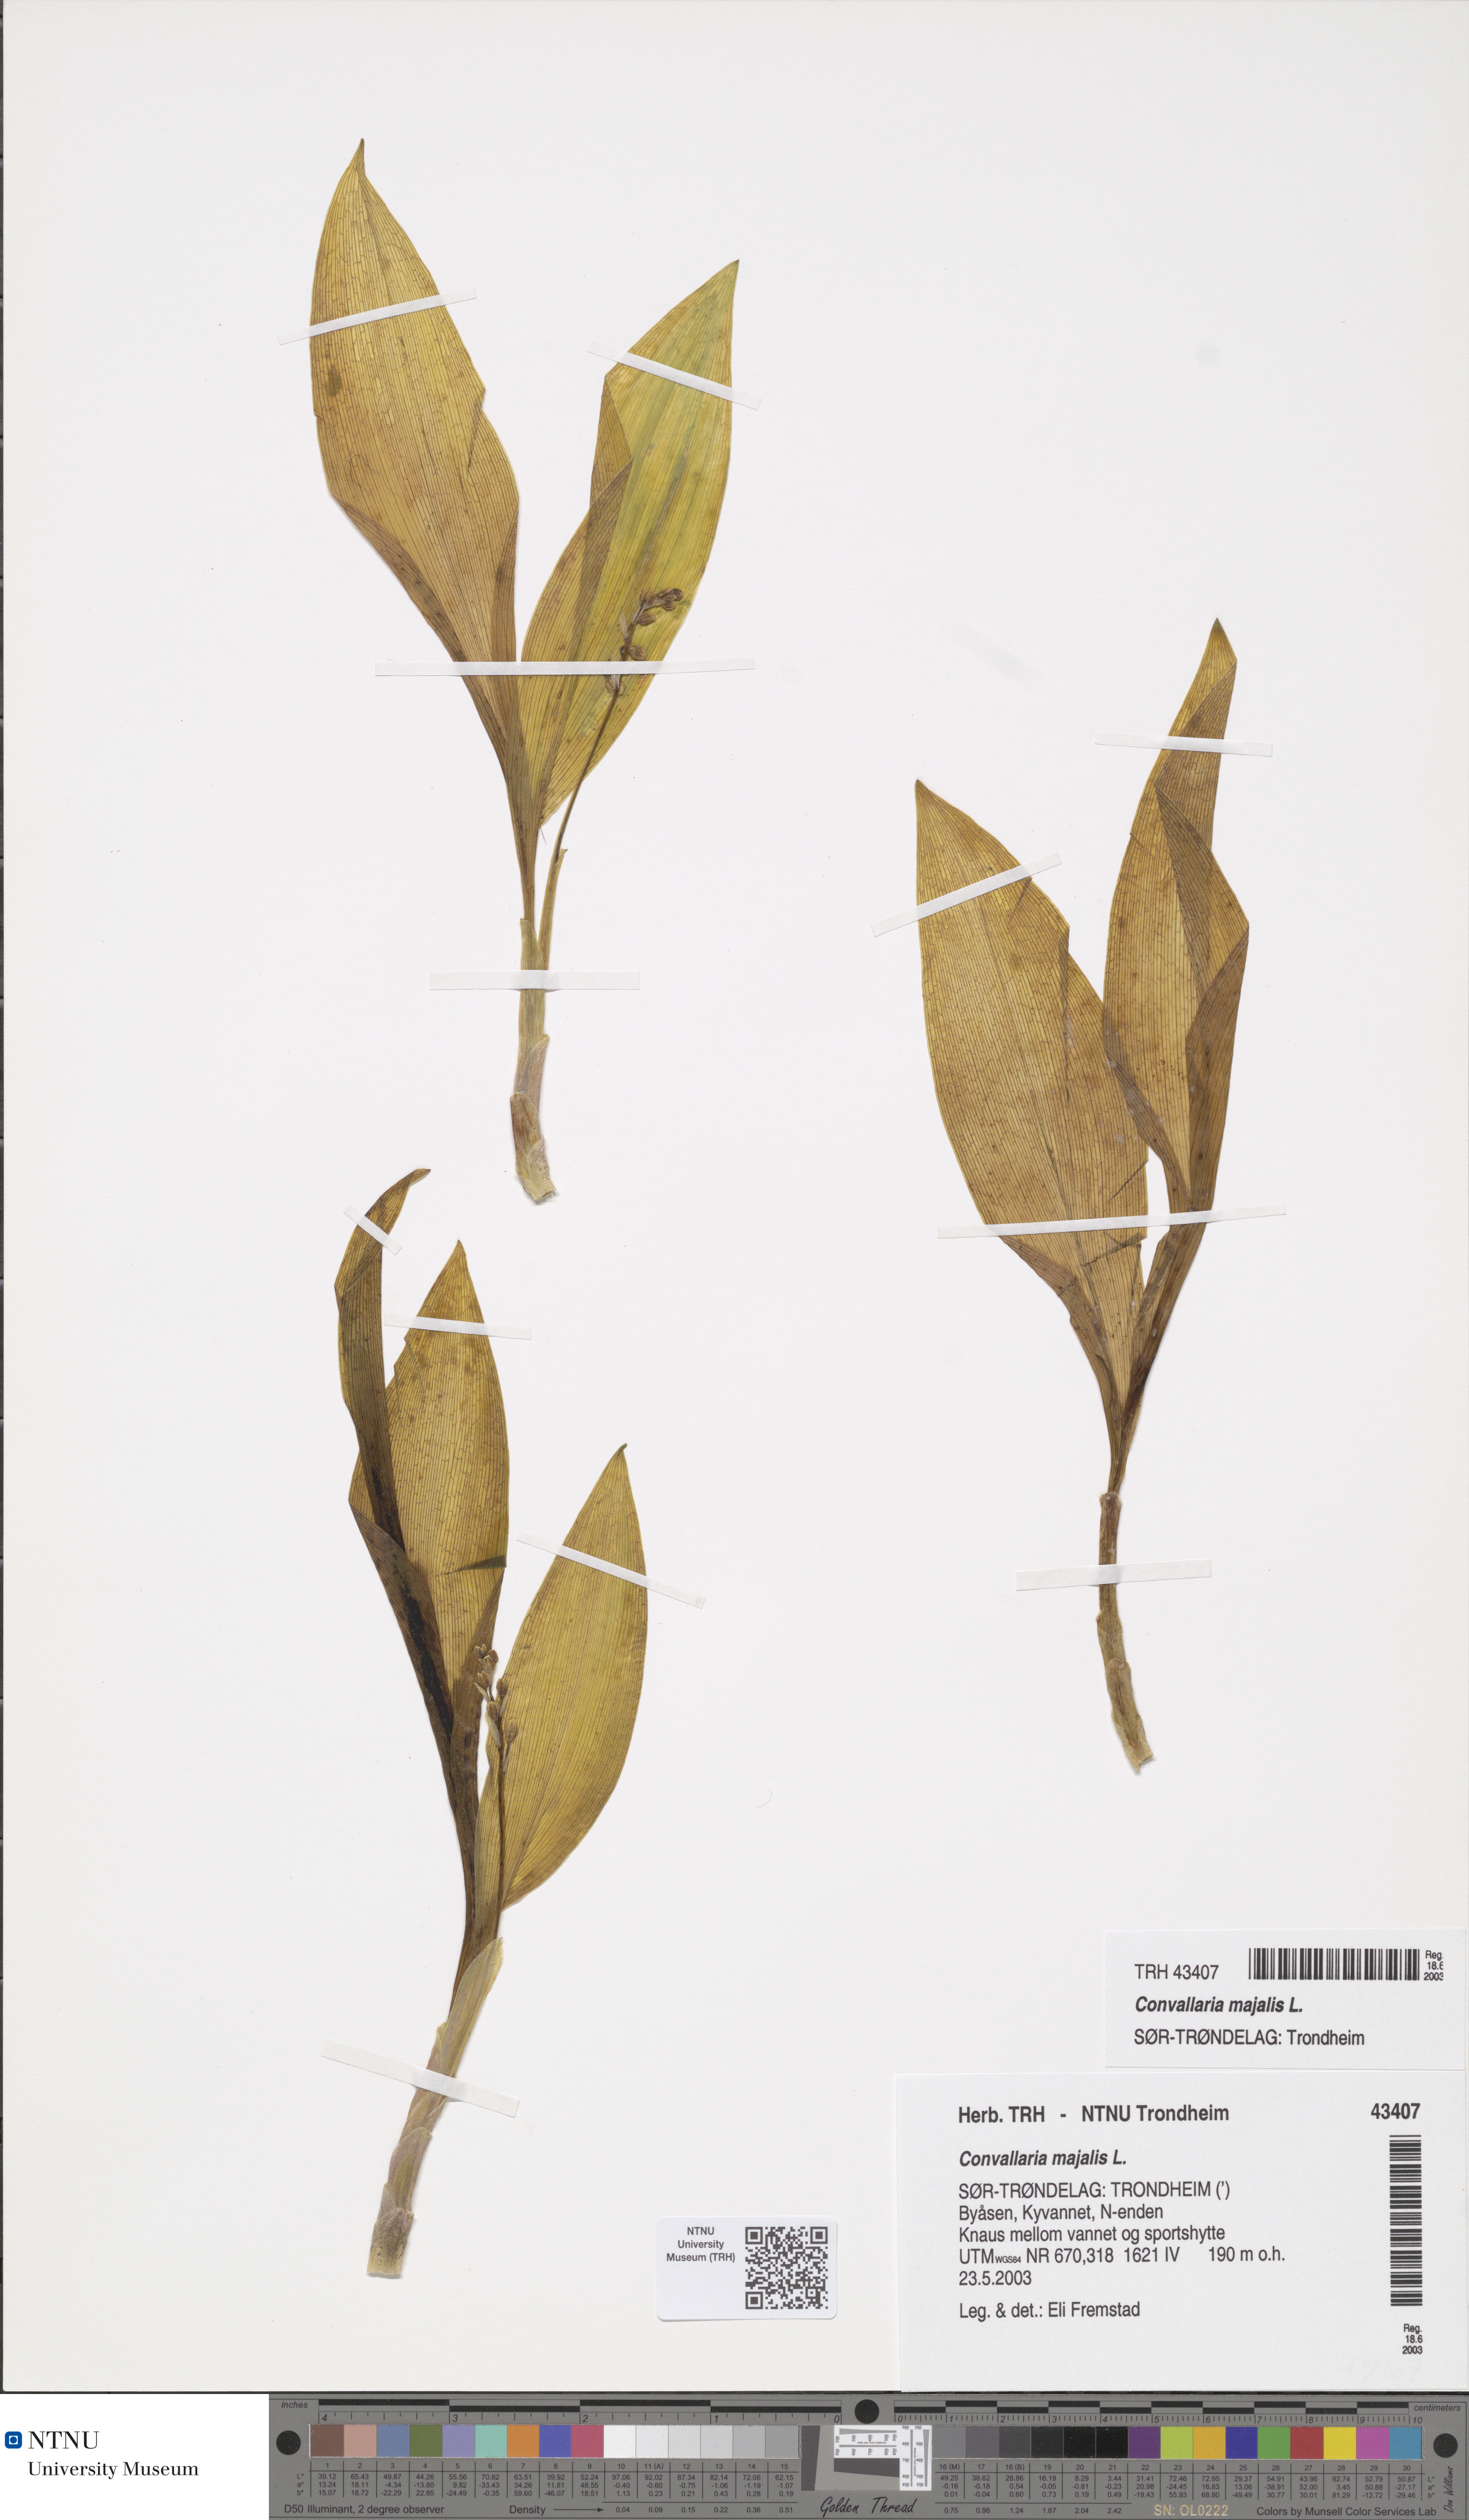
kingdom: Plantae
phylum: Tracheophyta
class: Liliopsida
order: Asparagales
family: Asparagaceae
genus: Convallaria
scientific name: Convallaria majalis
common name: Lily-of-the-valley
